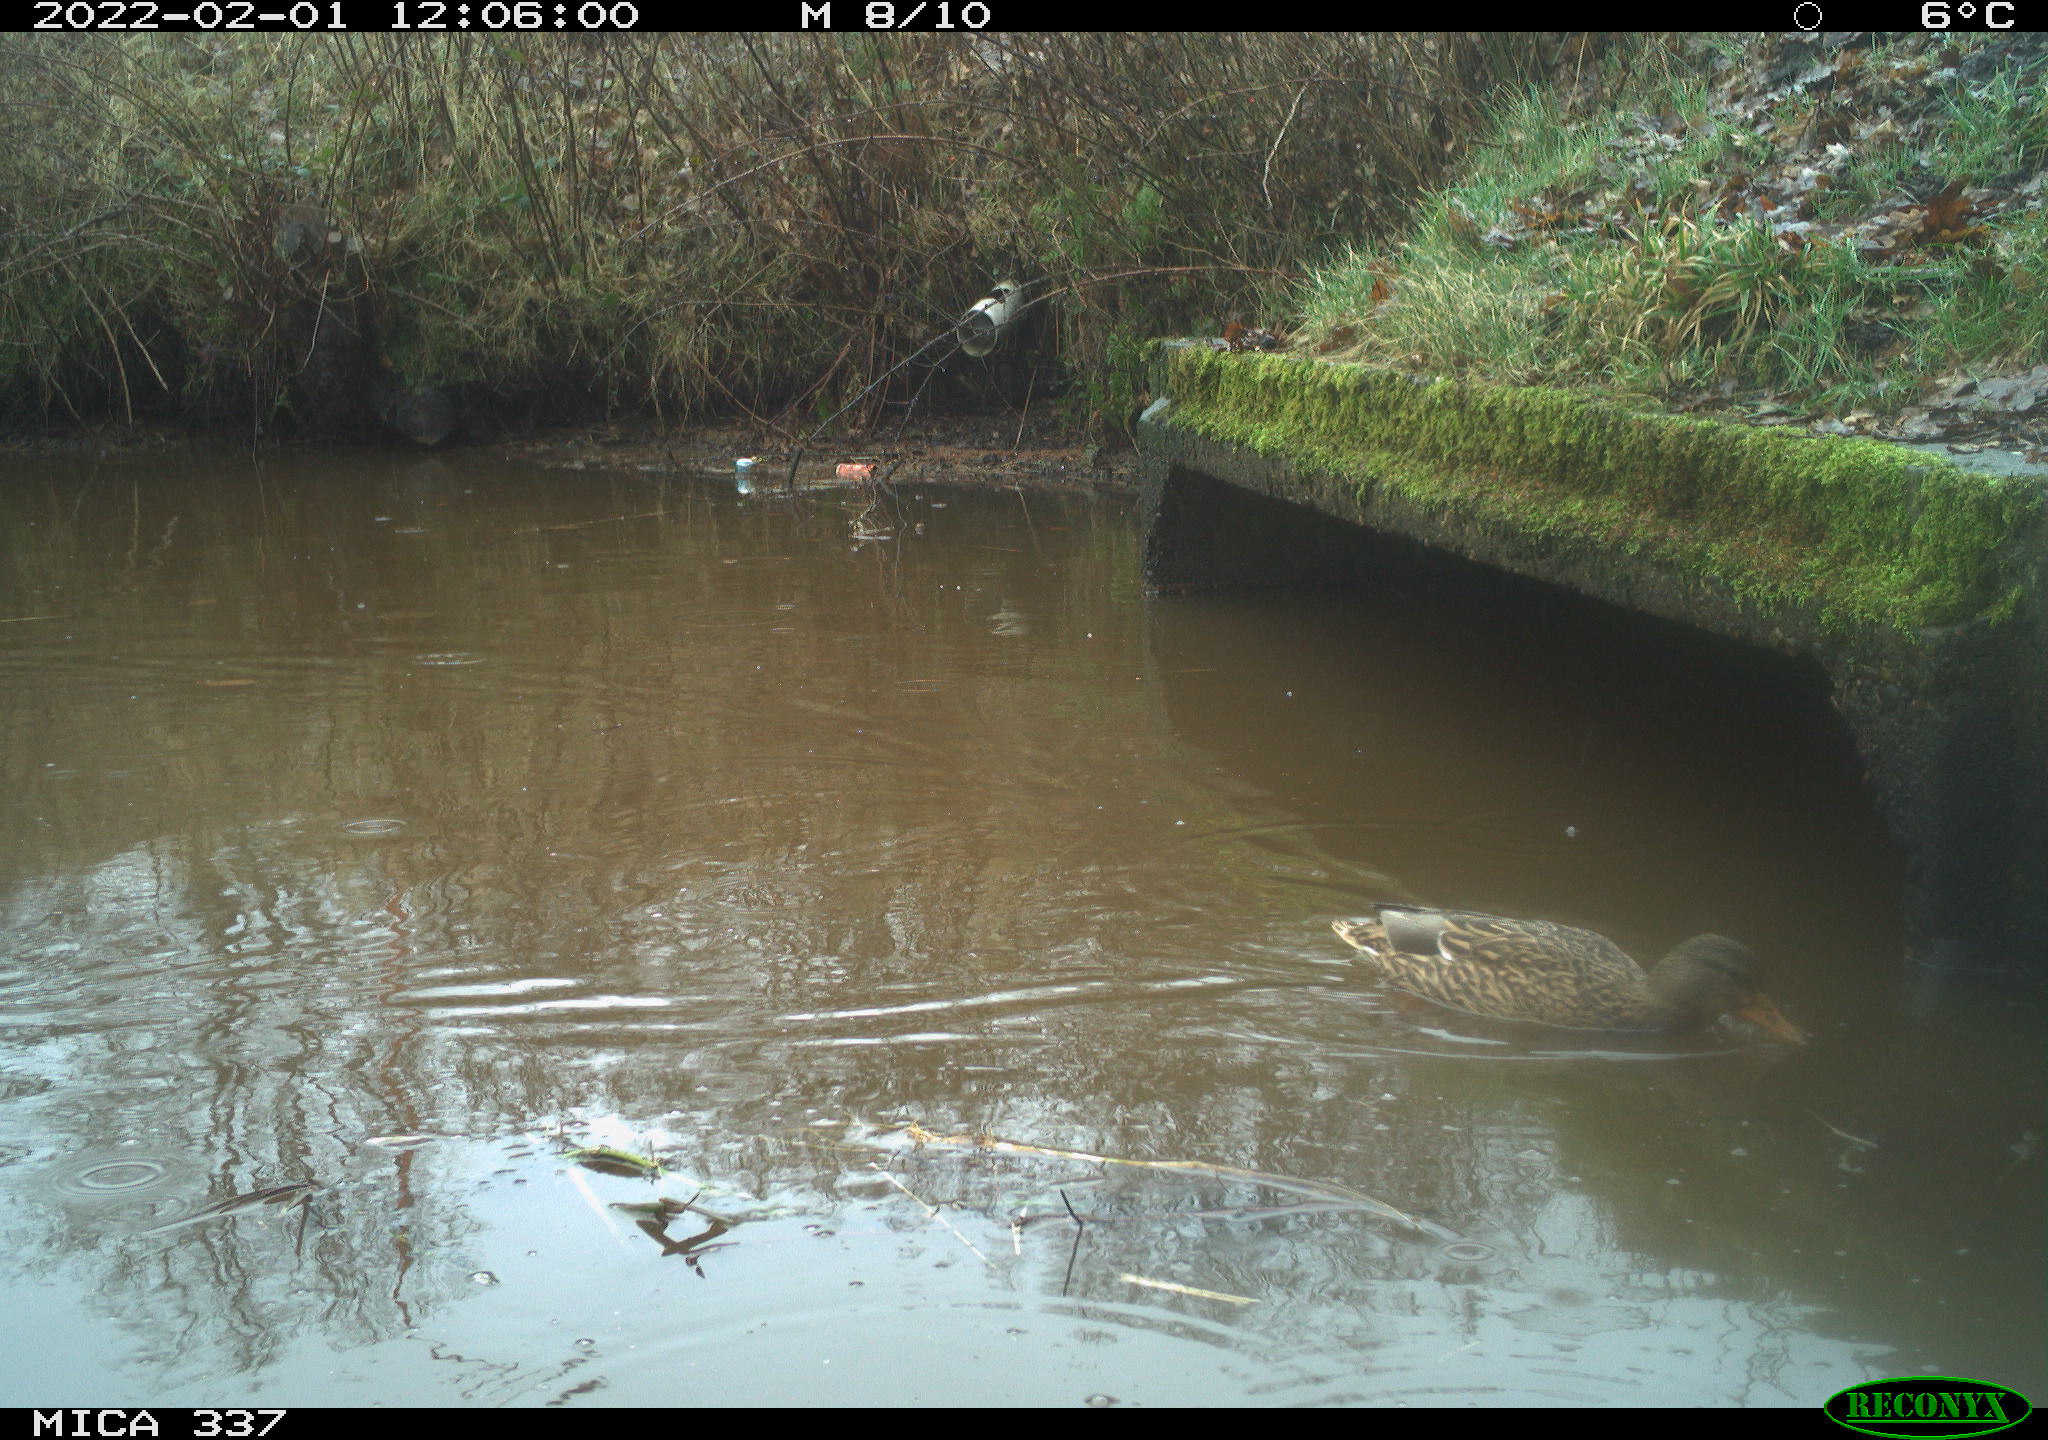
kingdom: Animalia
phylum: Chordata
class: Aves
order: Anseriformes
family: Anatidae
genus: Anas
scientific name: Anas platyrhynchos
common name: Mallard
